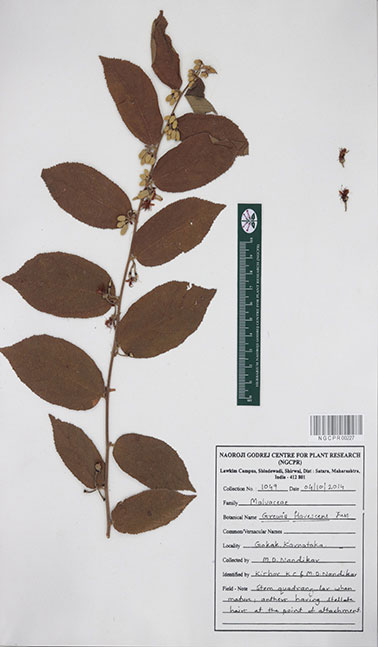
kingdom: Plantae
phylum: Tracheophyta
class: Magnoliopsida
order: Malvales
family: Malvaceae
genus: Grewia
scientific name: Grewia flavescens
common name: Sandpaper raisin
